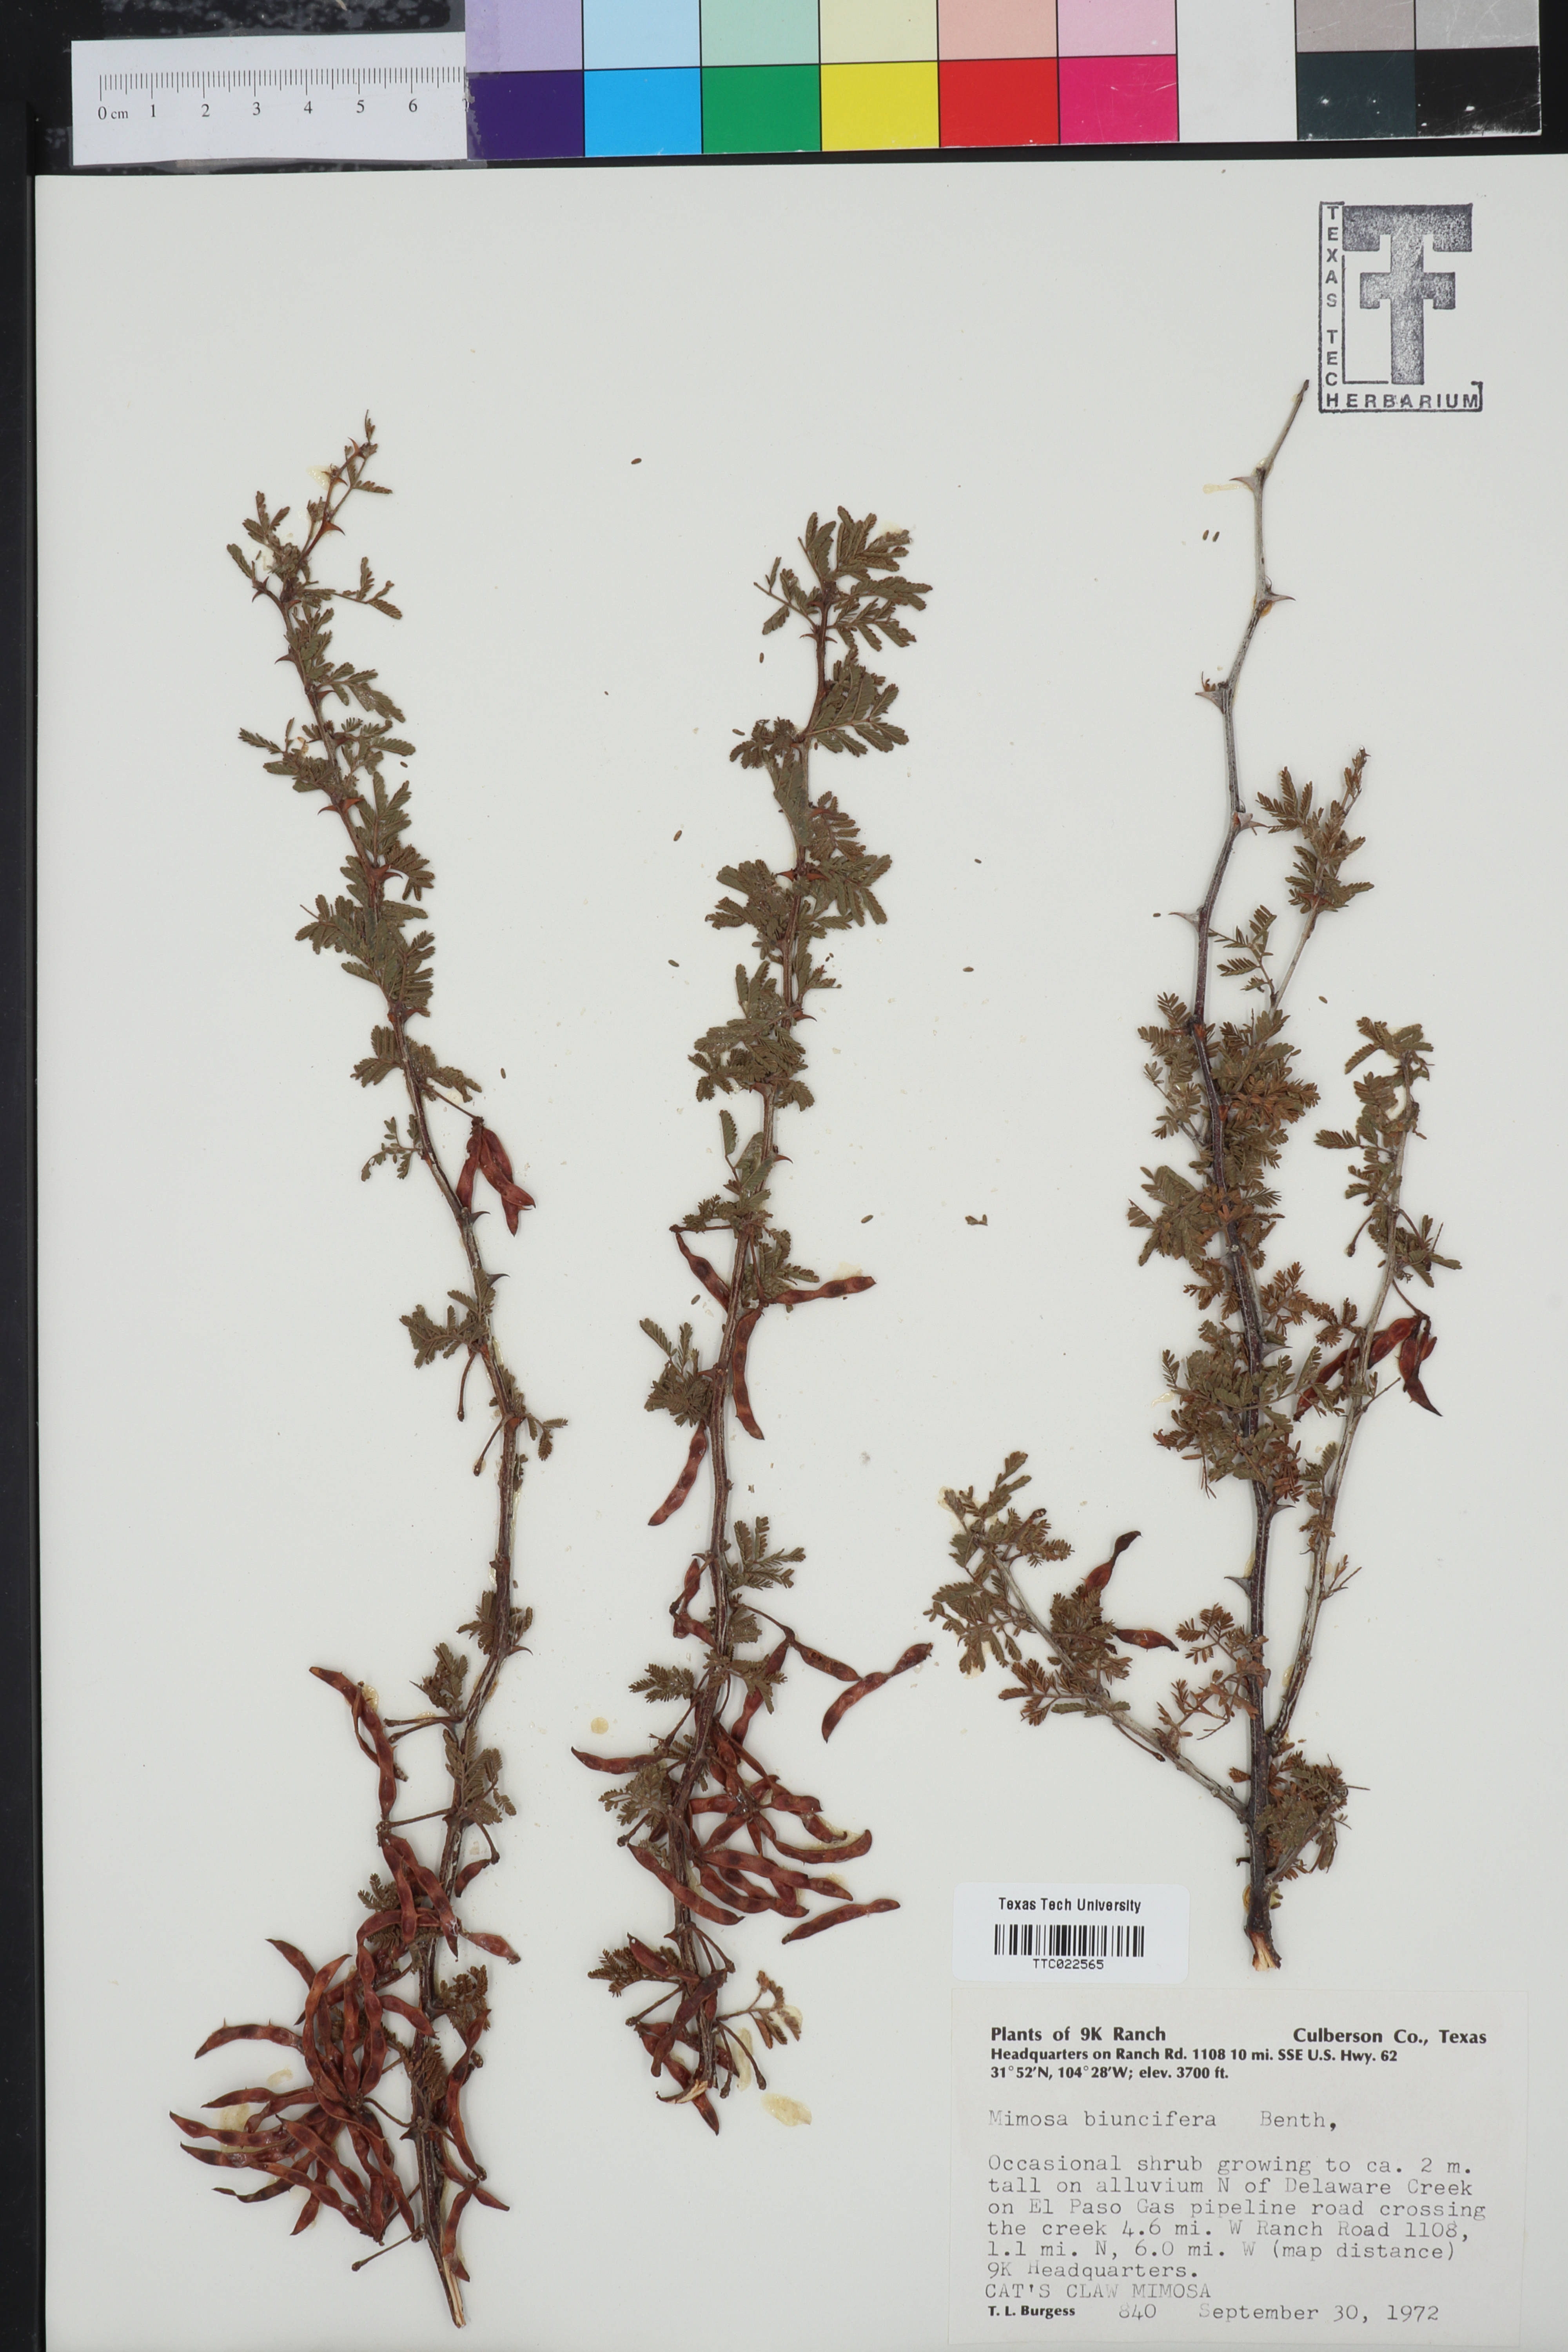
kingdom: Plantae
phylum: Tracheophyta
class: Magnoliopsida
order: Fabales
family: Fabaceae
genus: Mimosa
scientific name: Mimosa biuncifera
